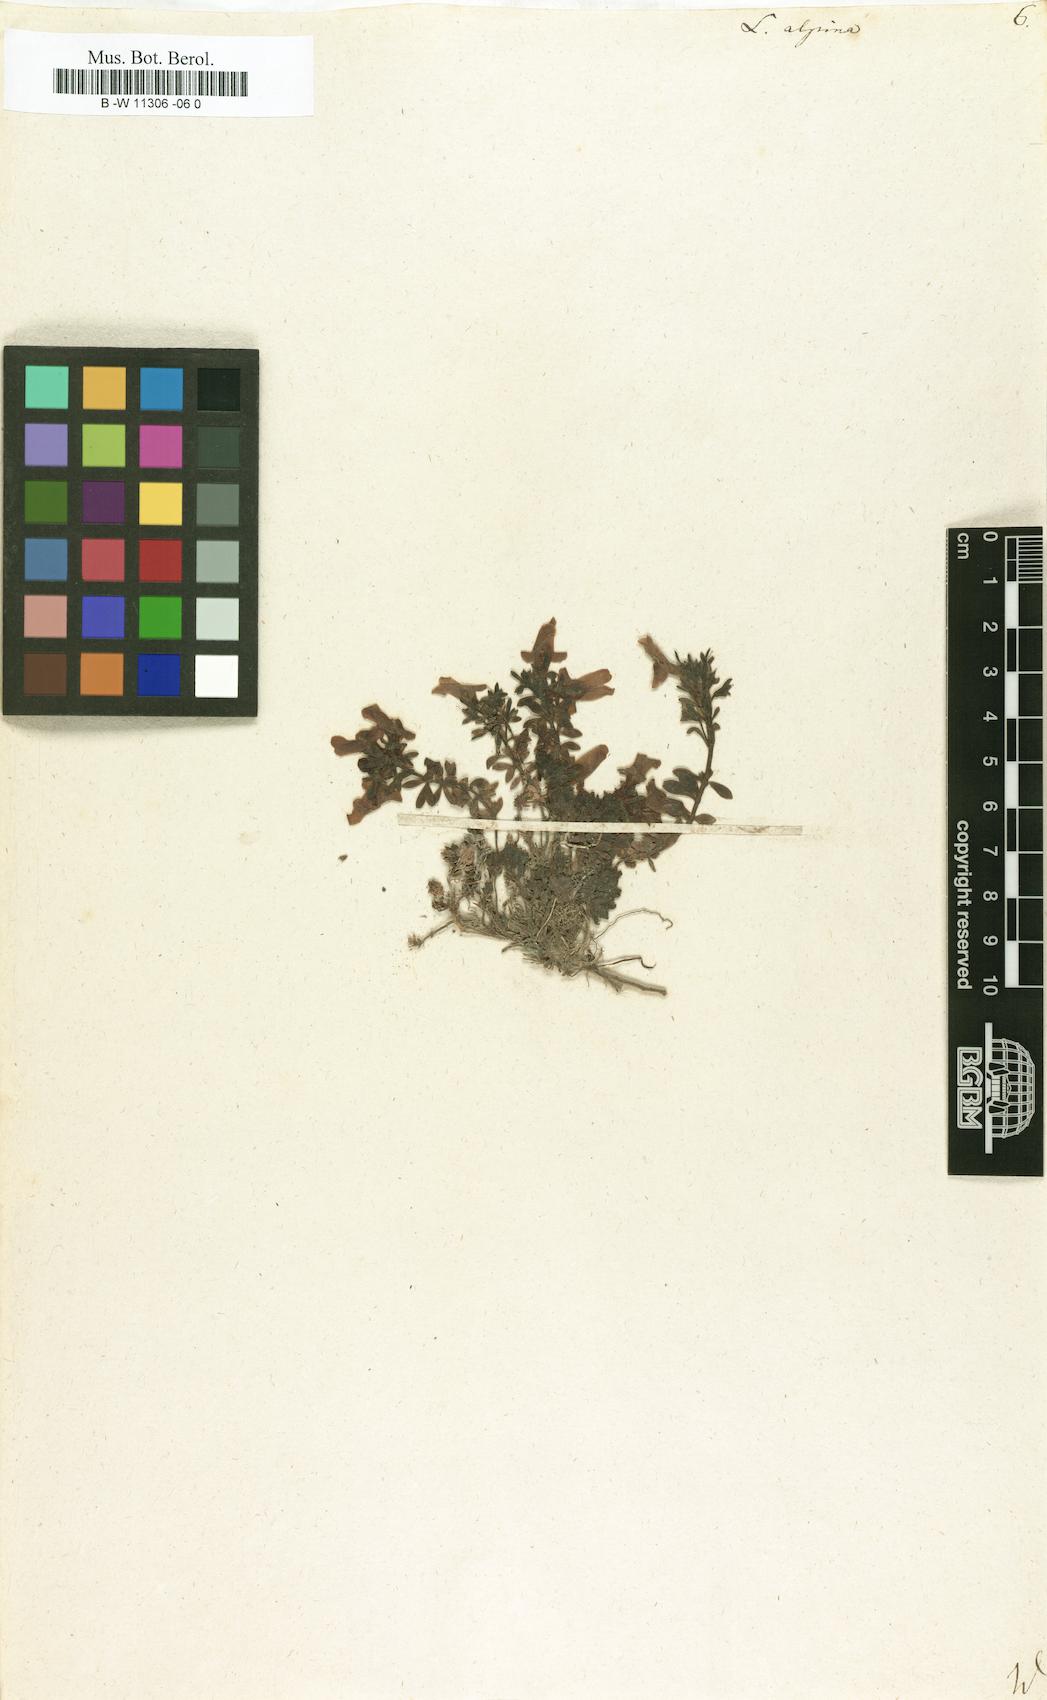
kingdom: Plantae
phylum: Tracheophyta
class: Magnoliopsida
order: Lamiales
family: Plantaginaceae
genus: Linaria
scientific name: Linaria alpina
